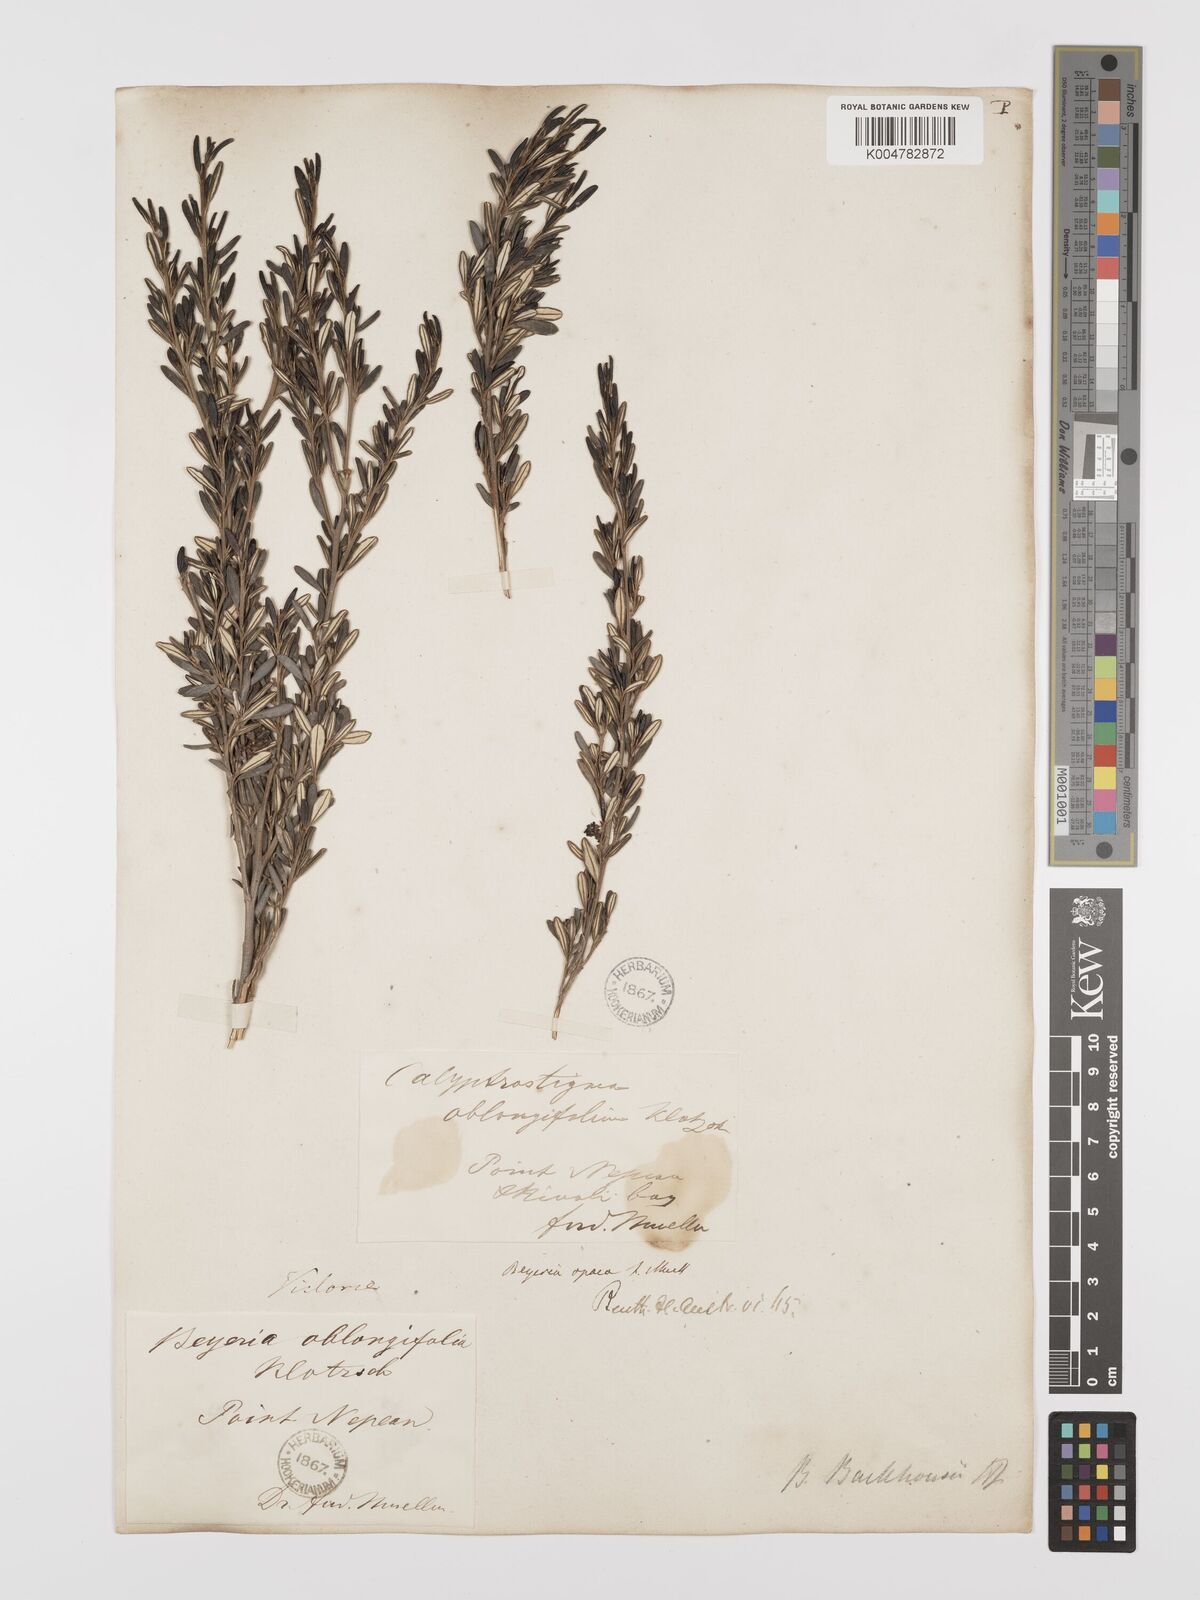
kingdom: Plantae
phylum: Tracheophyta
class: Magnoliopsida
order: Malpighiales
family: Euphorbiaceae
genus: Beyeria
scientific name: Beyeria lechenaultii
